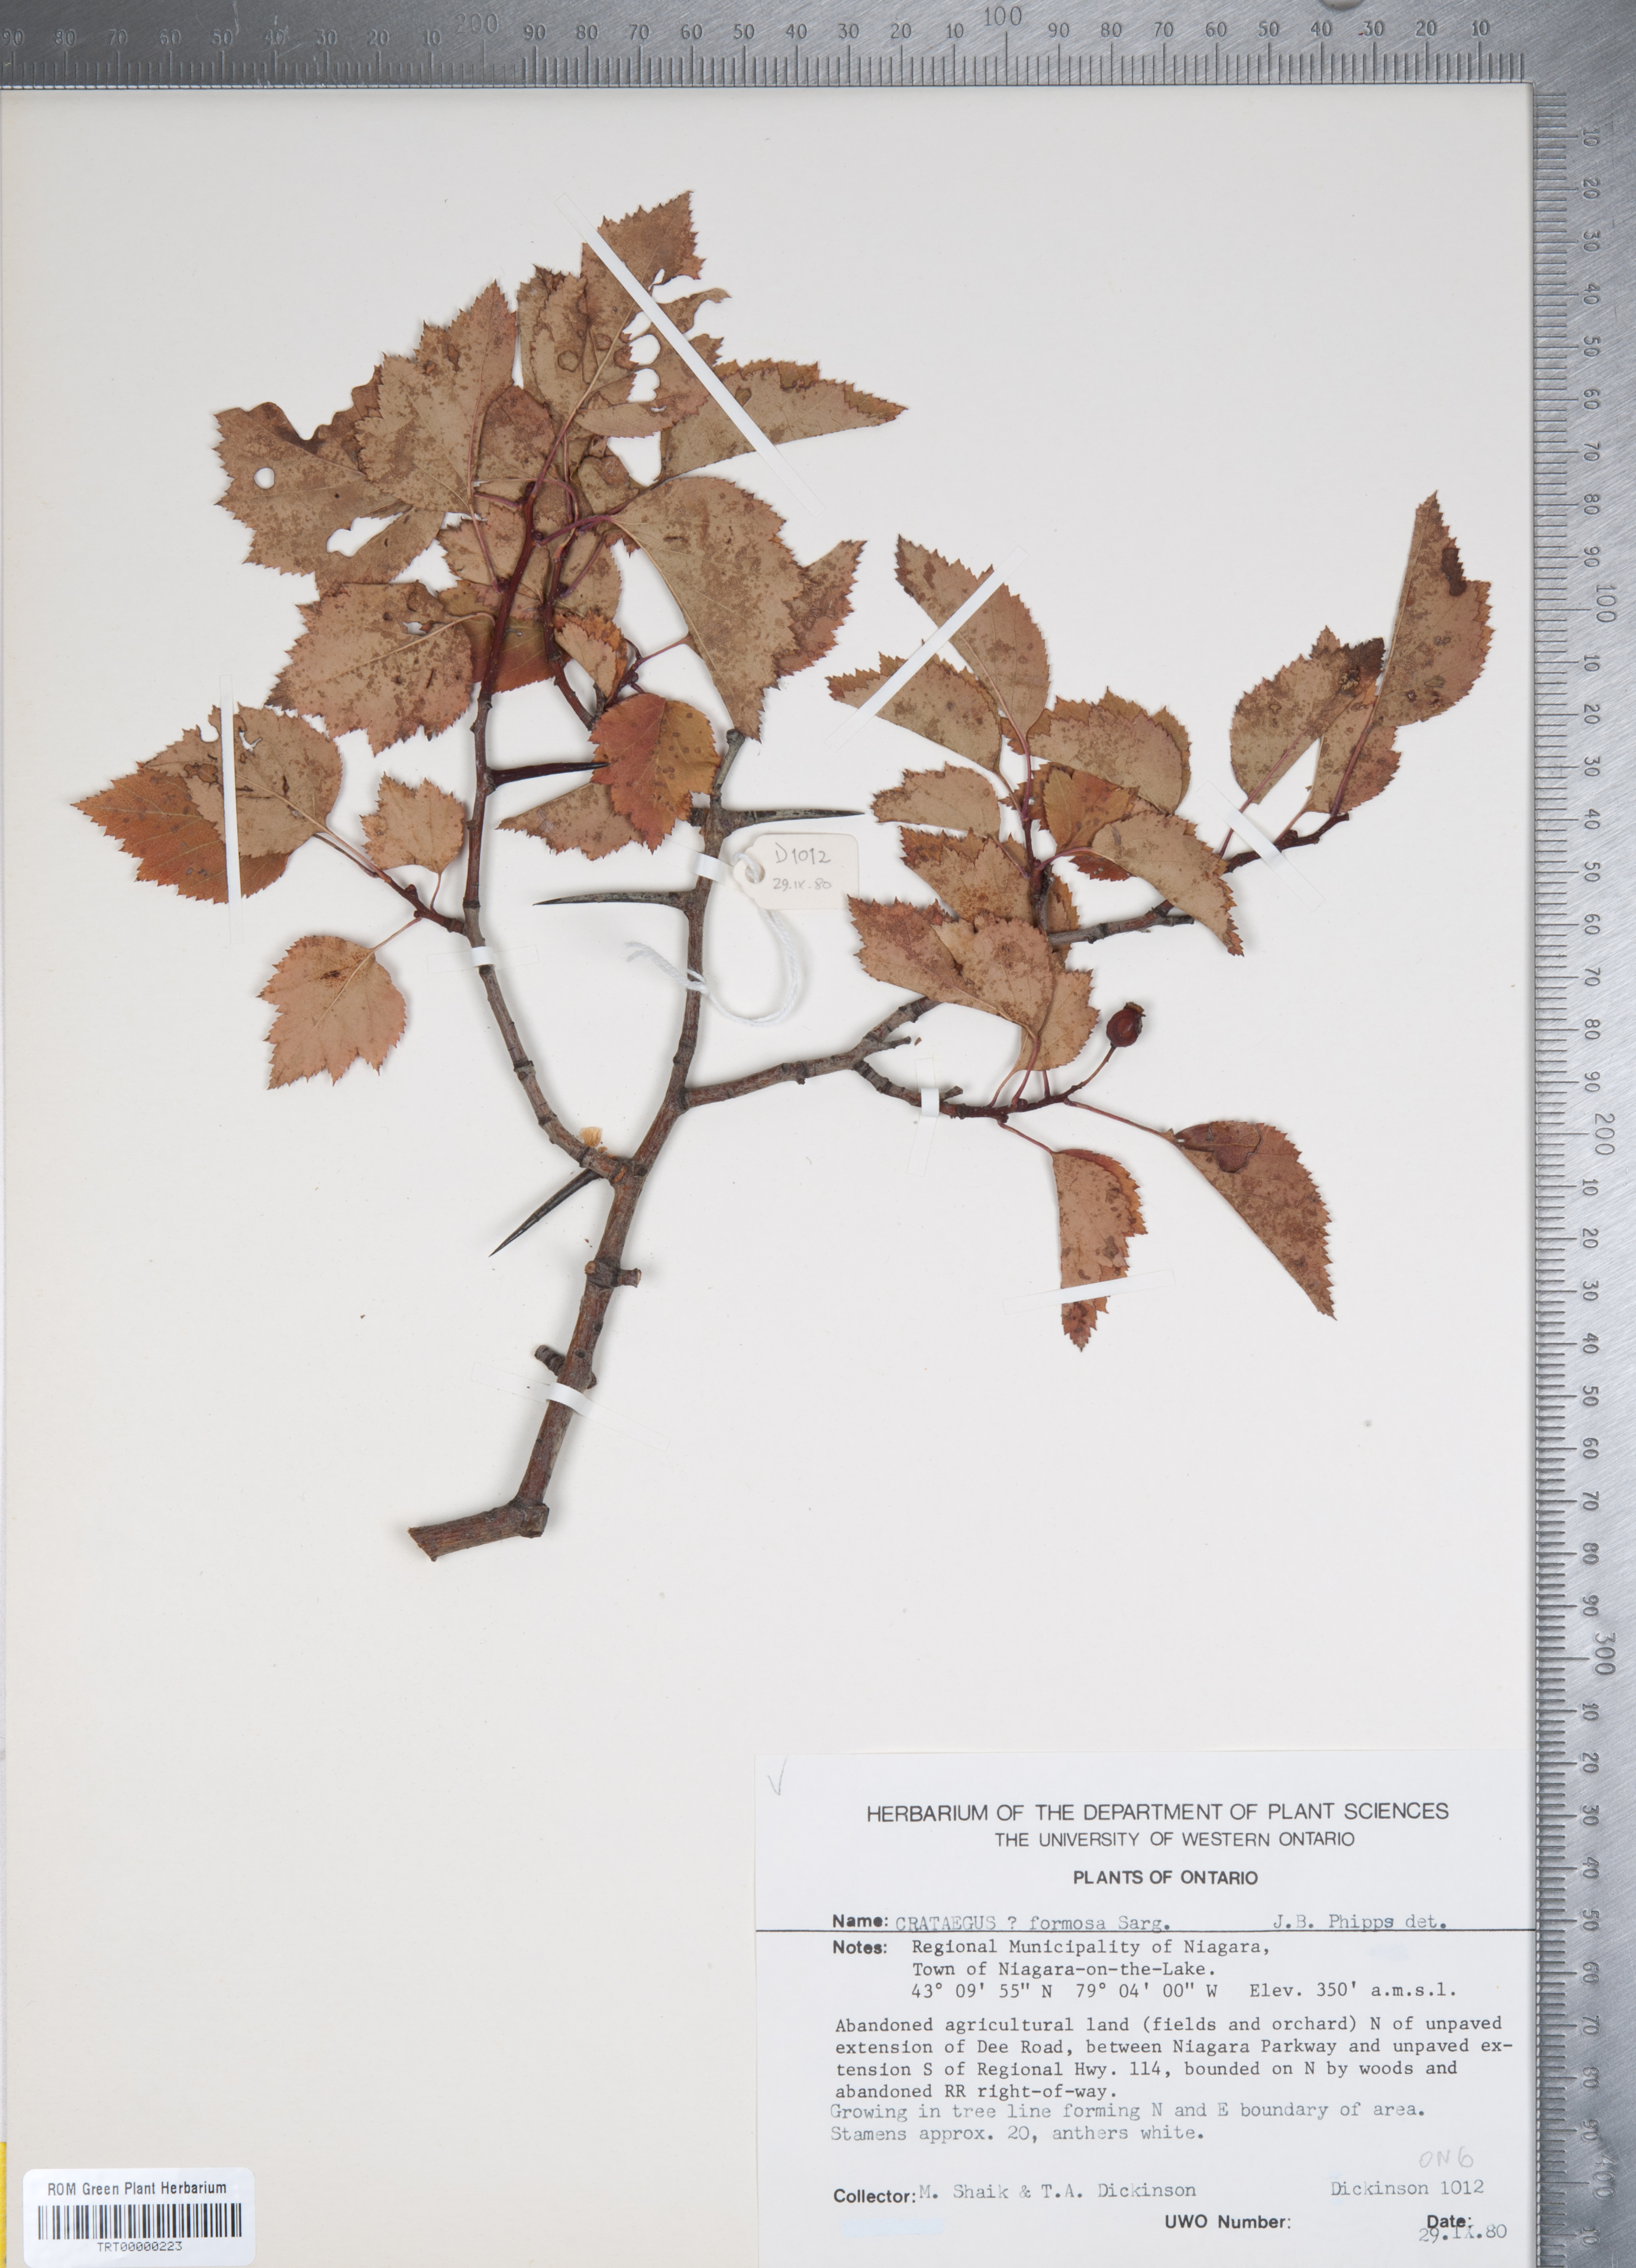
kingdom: Plantae
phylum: Tracheophyta
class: Magnoliopsida
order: Rosales
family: Rosaceae
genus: Crataegus
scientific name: Crataegus pruinosa
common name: Waxy-fruit hawthorn
